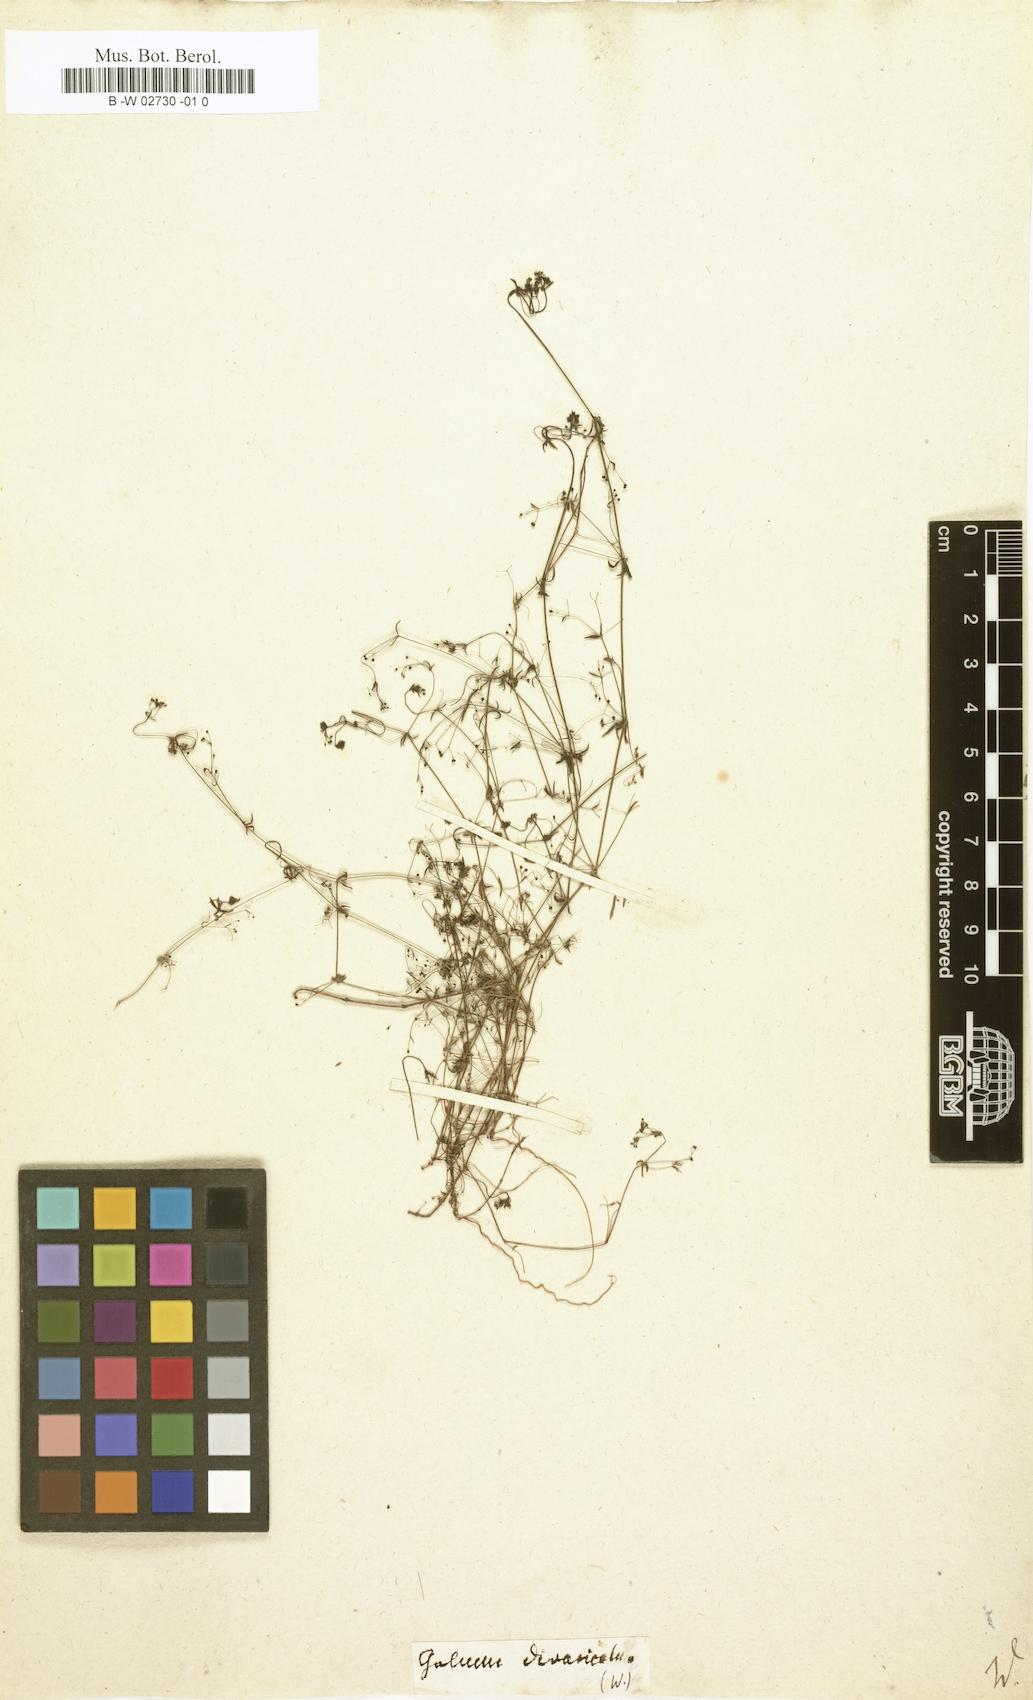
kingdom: Plantae
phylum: Tracheophyta
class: Magnoliopsida
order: Gentianales
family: Rubiaceae
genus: Galium
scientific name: Galium divaricatum
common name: Lamarck's bedstraw
